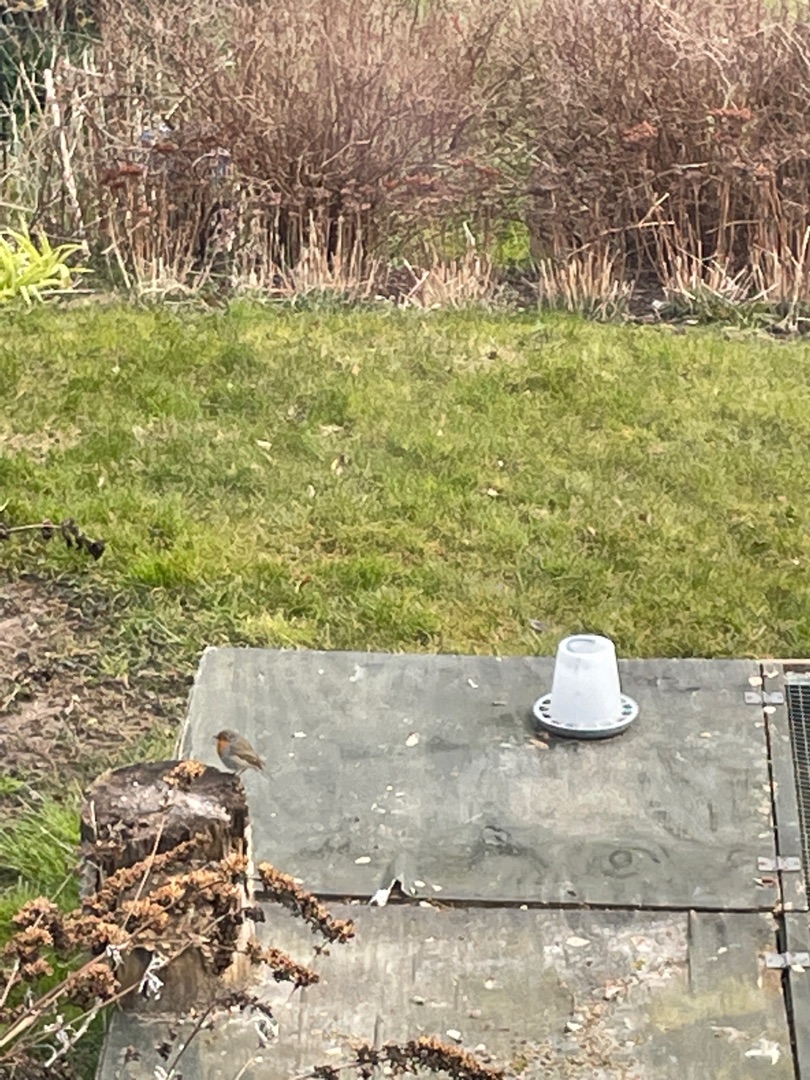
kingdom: Animalia
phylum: Chordata
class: Aves
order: Passeriformes
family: Muscicapidae
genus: Erithacus
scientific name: Erithacus rubecula
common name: Rødhals/rødkælk
